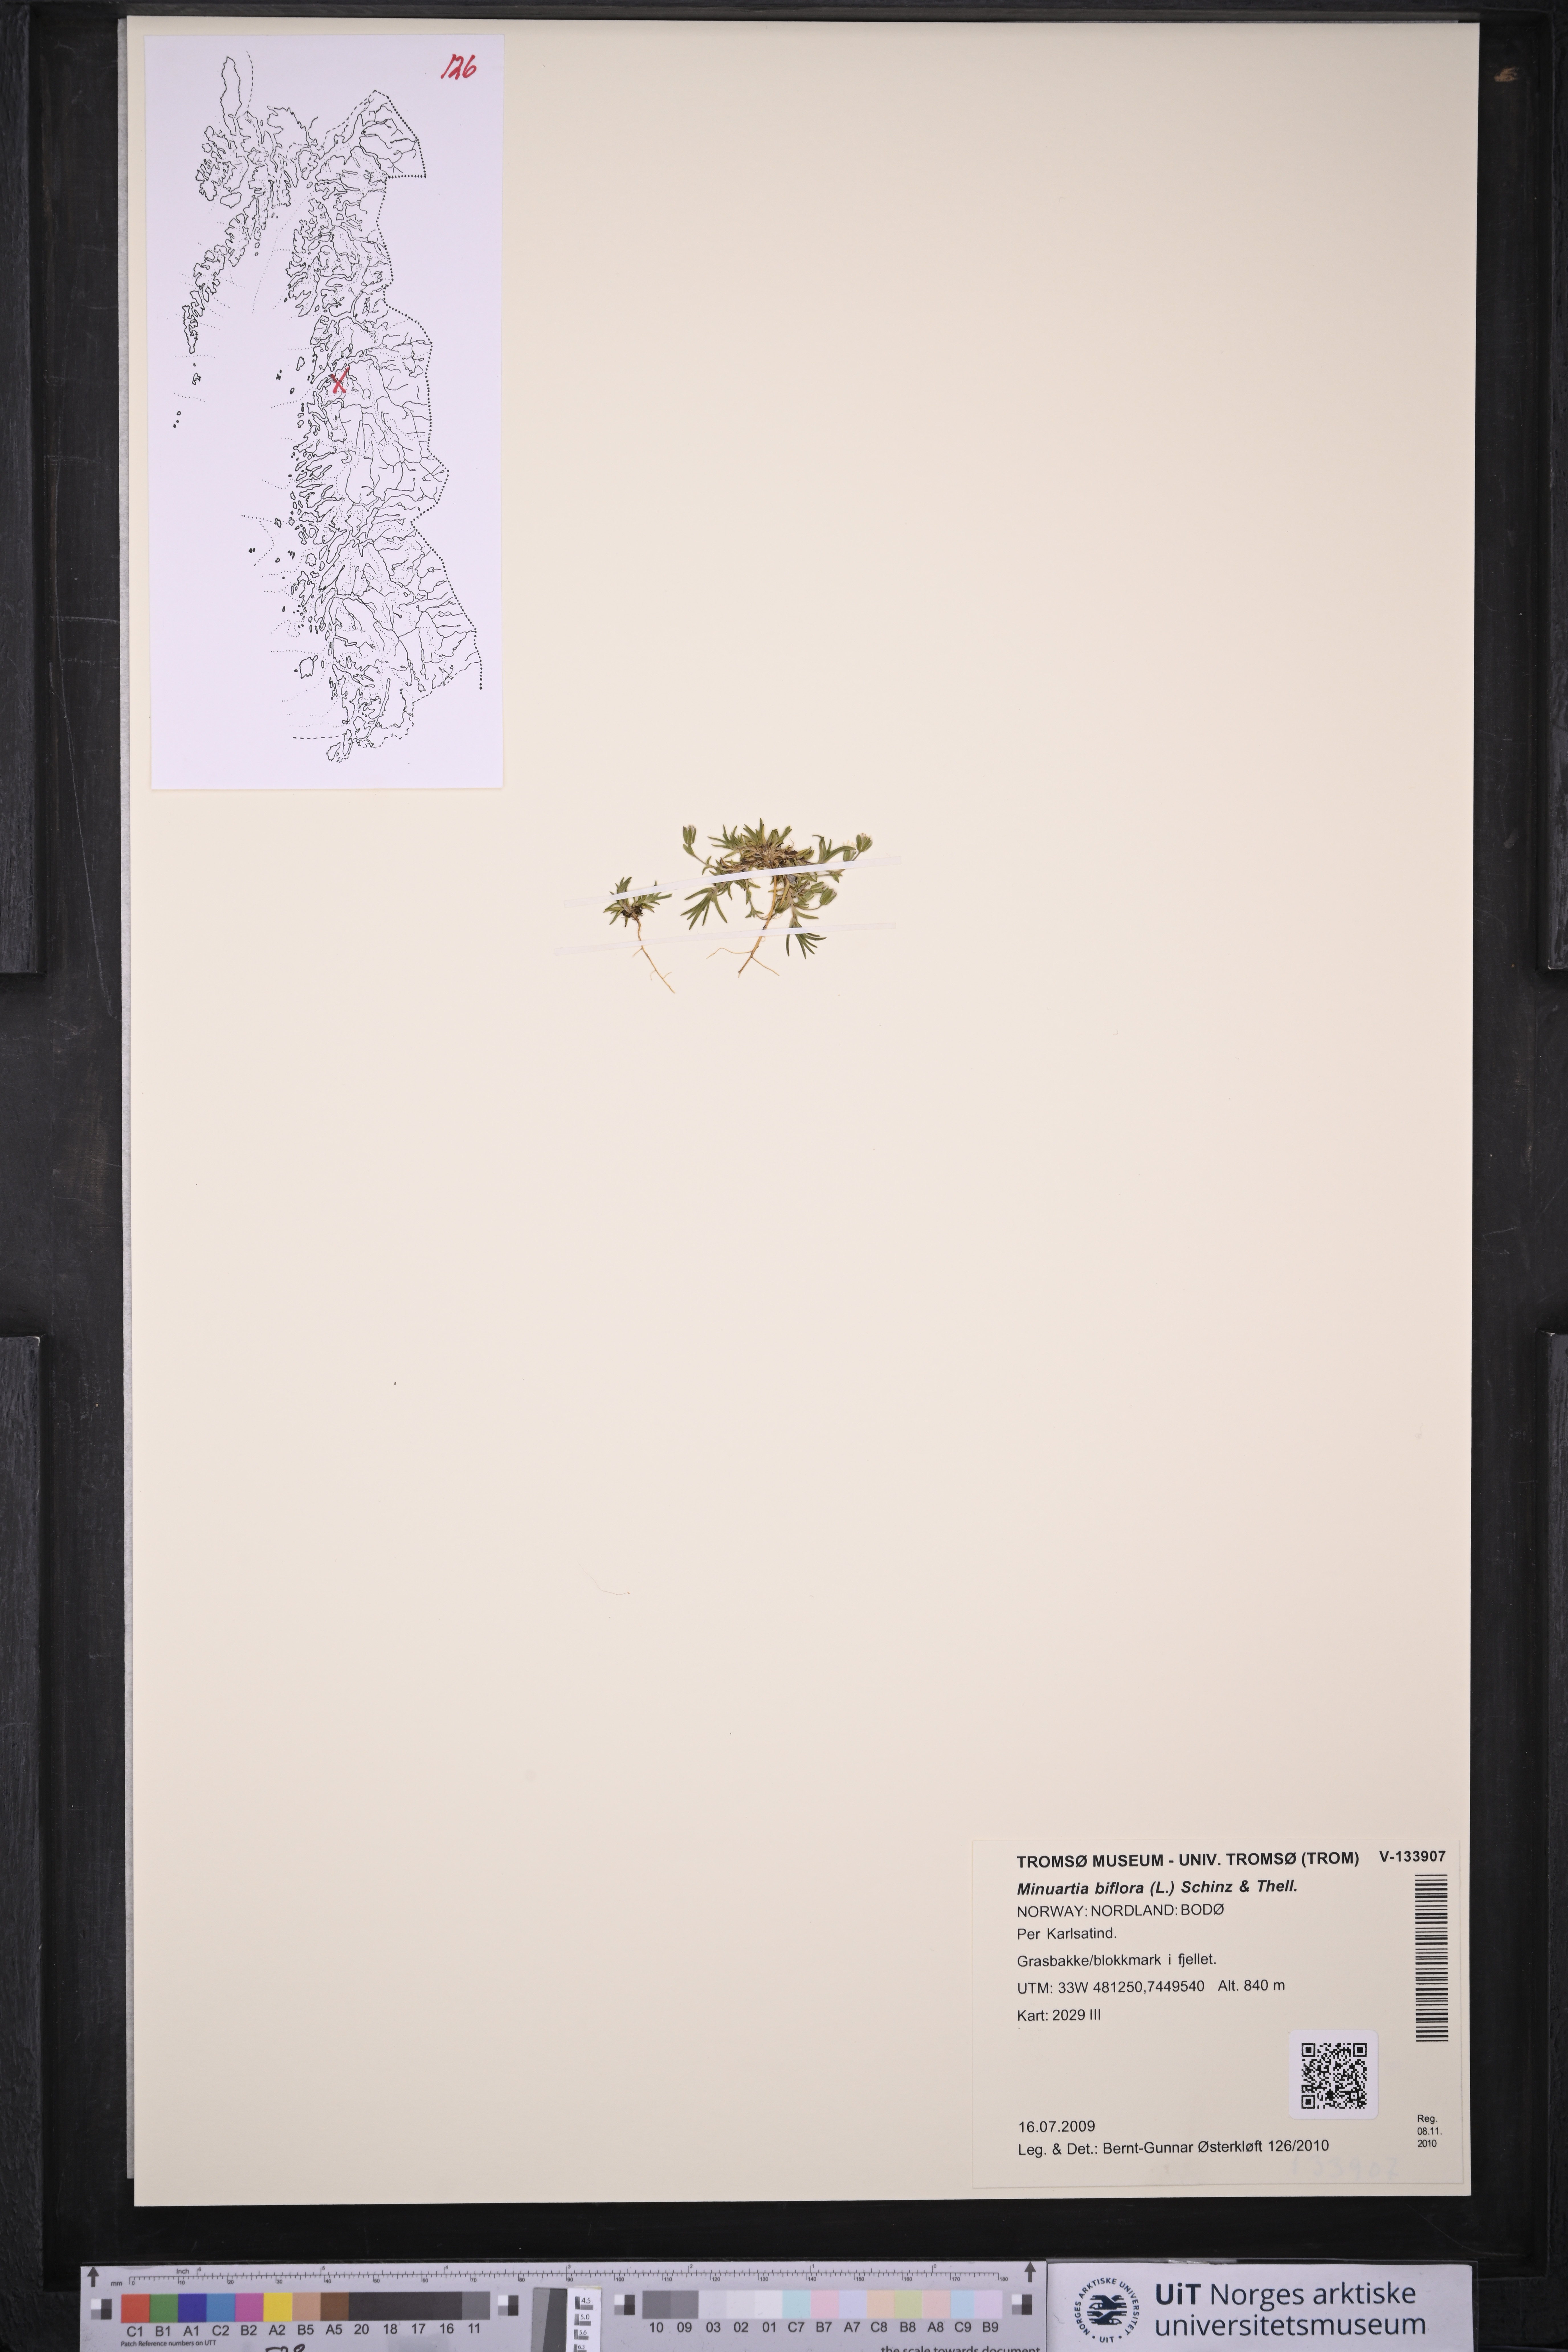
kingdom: Plantae
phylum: Tracheophyta
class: Magnoliopsida
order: Caryophyllales
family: Caryophyllaceae
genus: Cherleria
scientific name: Cherleria biflora
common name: Mountain sandwort
